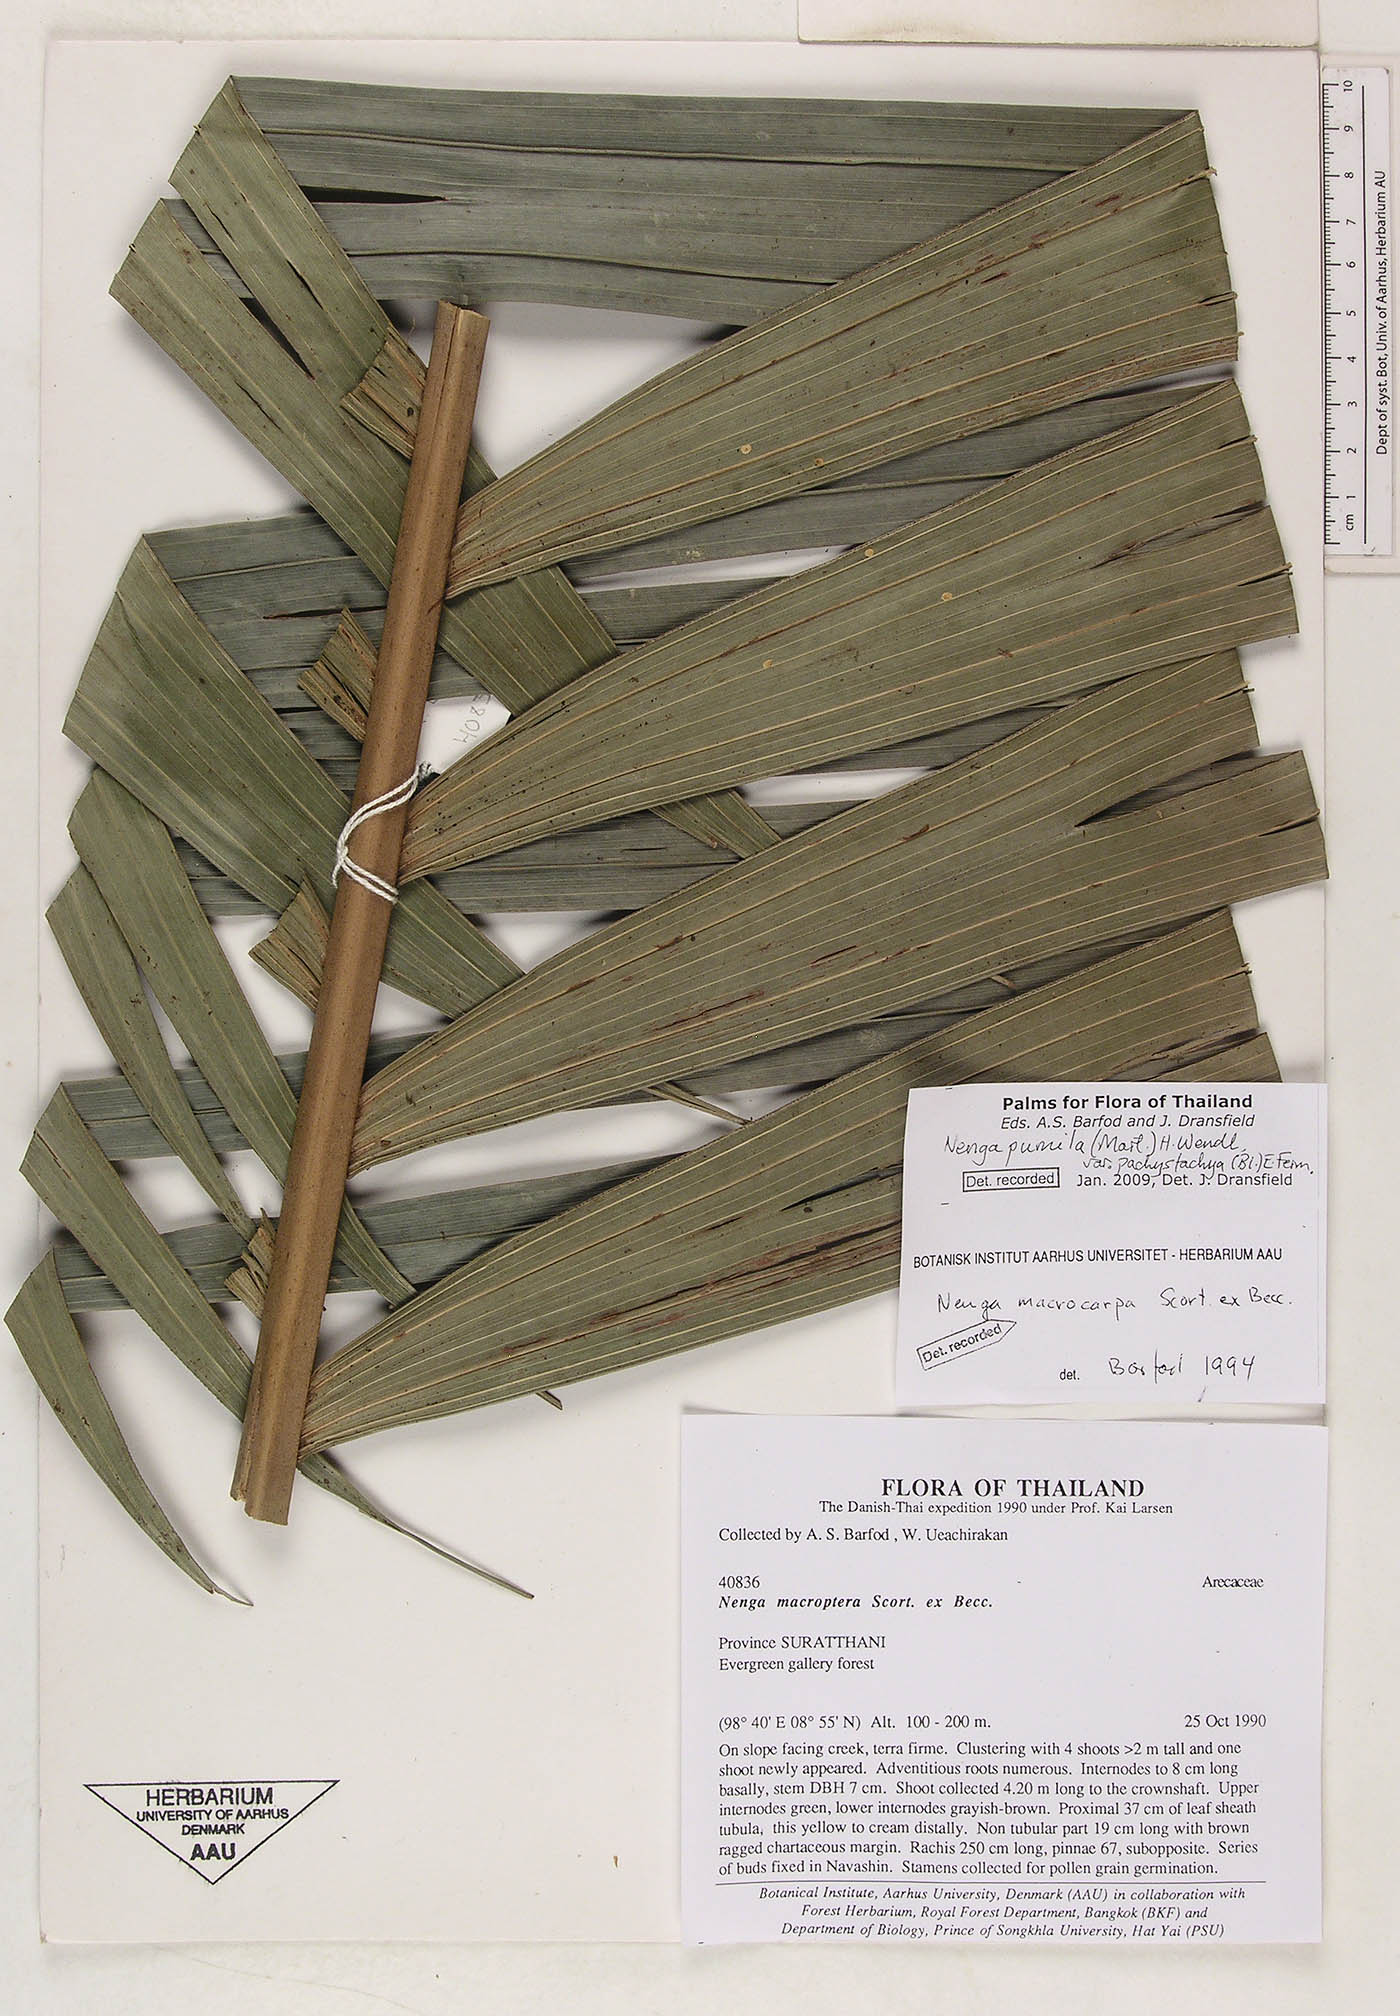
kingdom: Plantae
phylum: Tracheophyta
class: Liliopsida
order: Arecales
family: Arecaceae
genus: Nenga
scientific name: Nenga pumila
